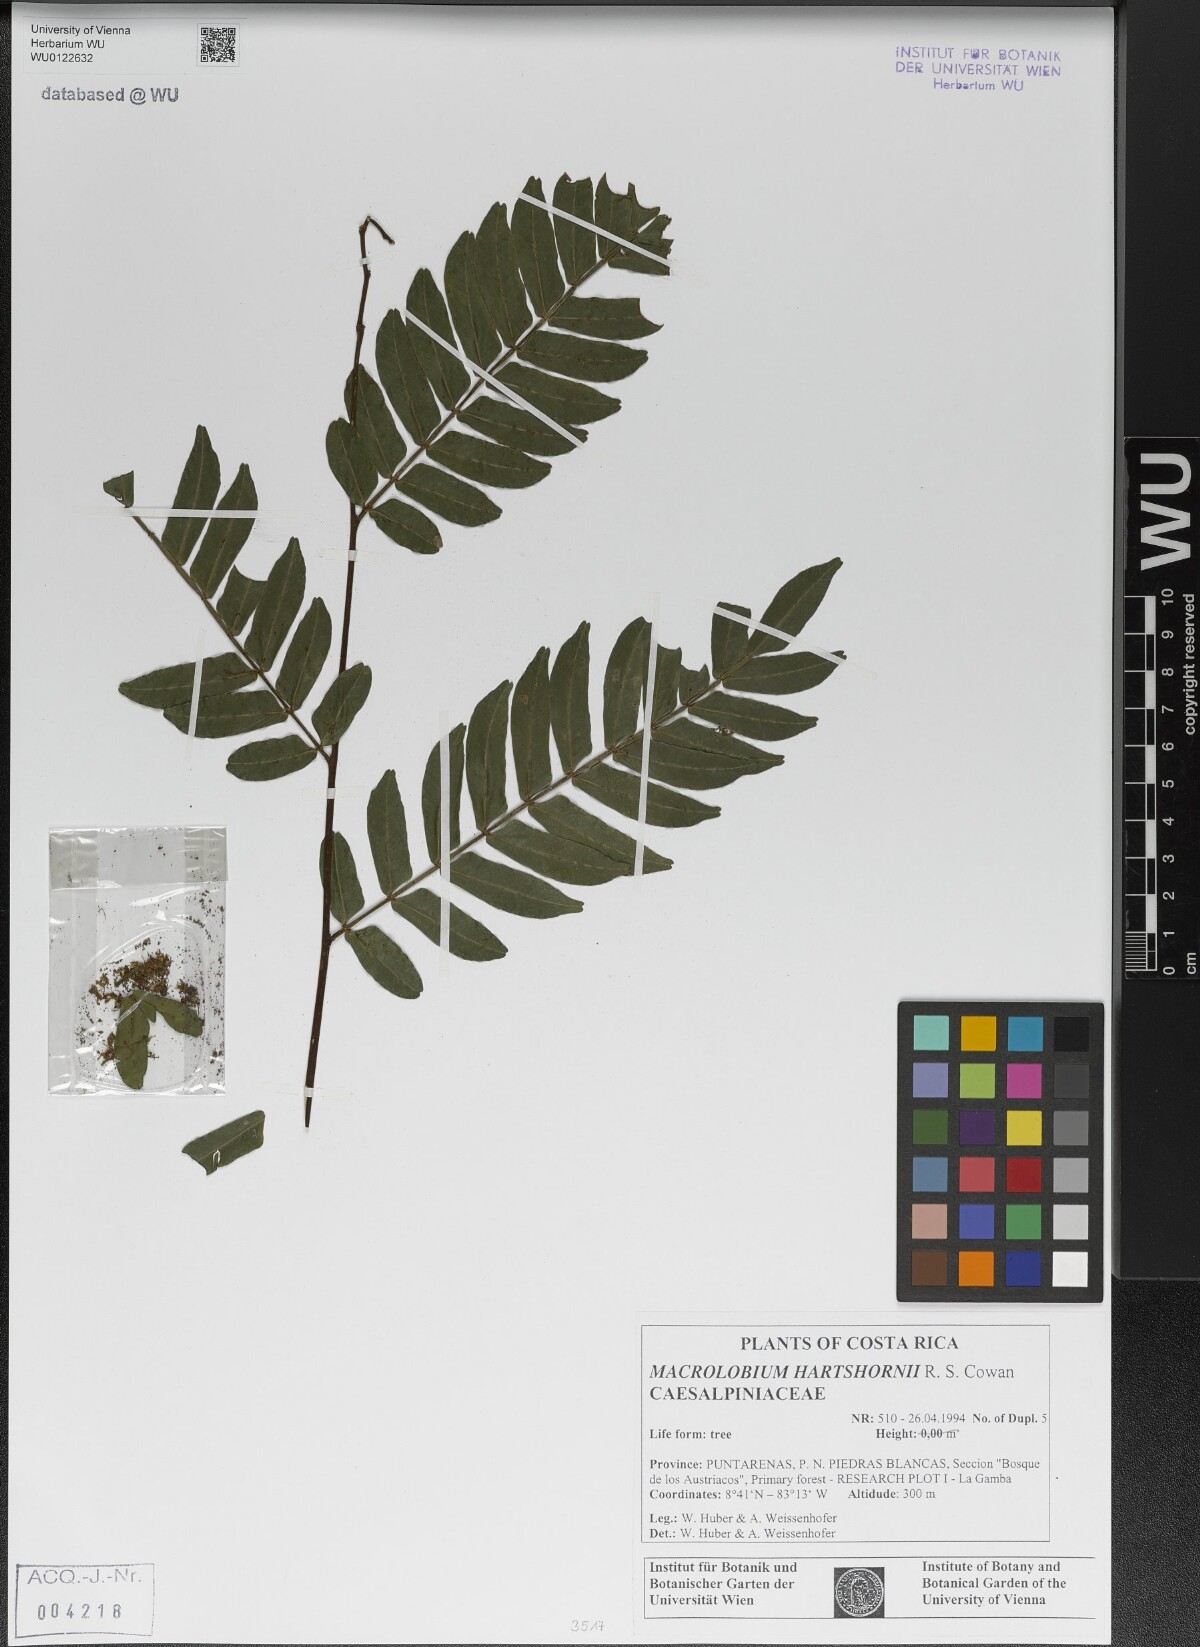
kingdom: Plantae
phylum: Tracheophyta
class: Magnoliopsida
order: Fabales
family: Fabaceae
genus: Macrolobium
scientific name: Macrolobium hartshornii
